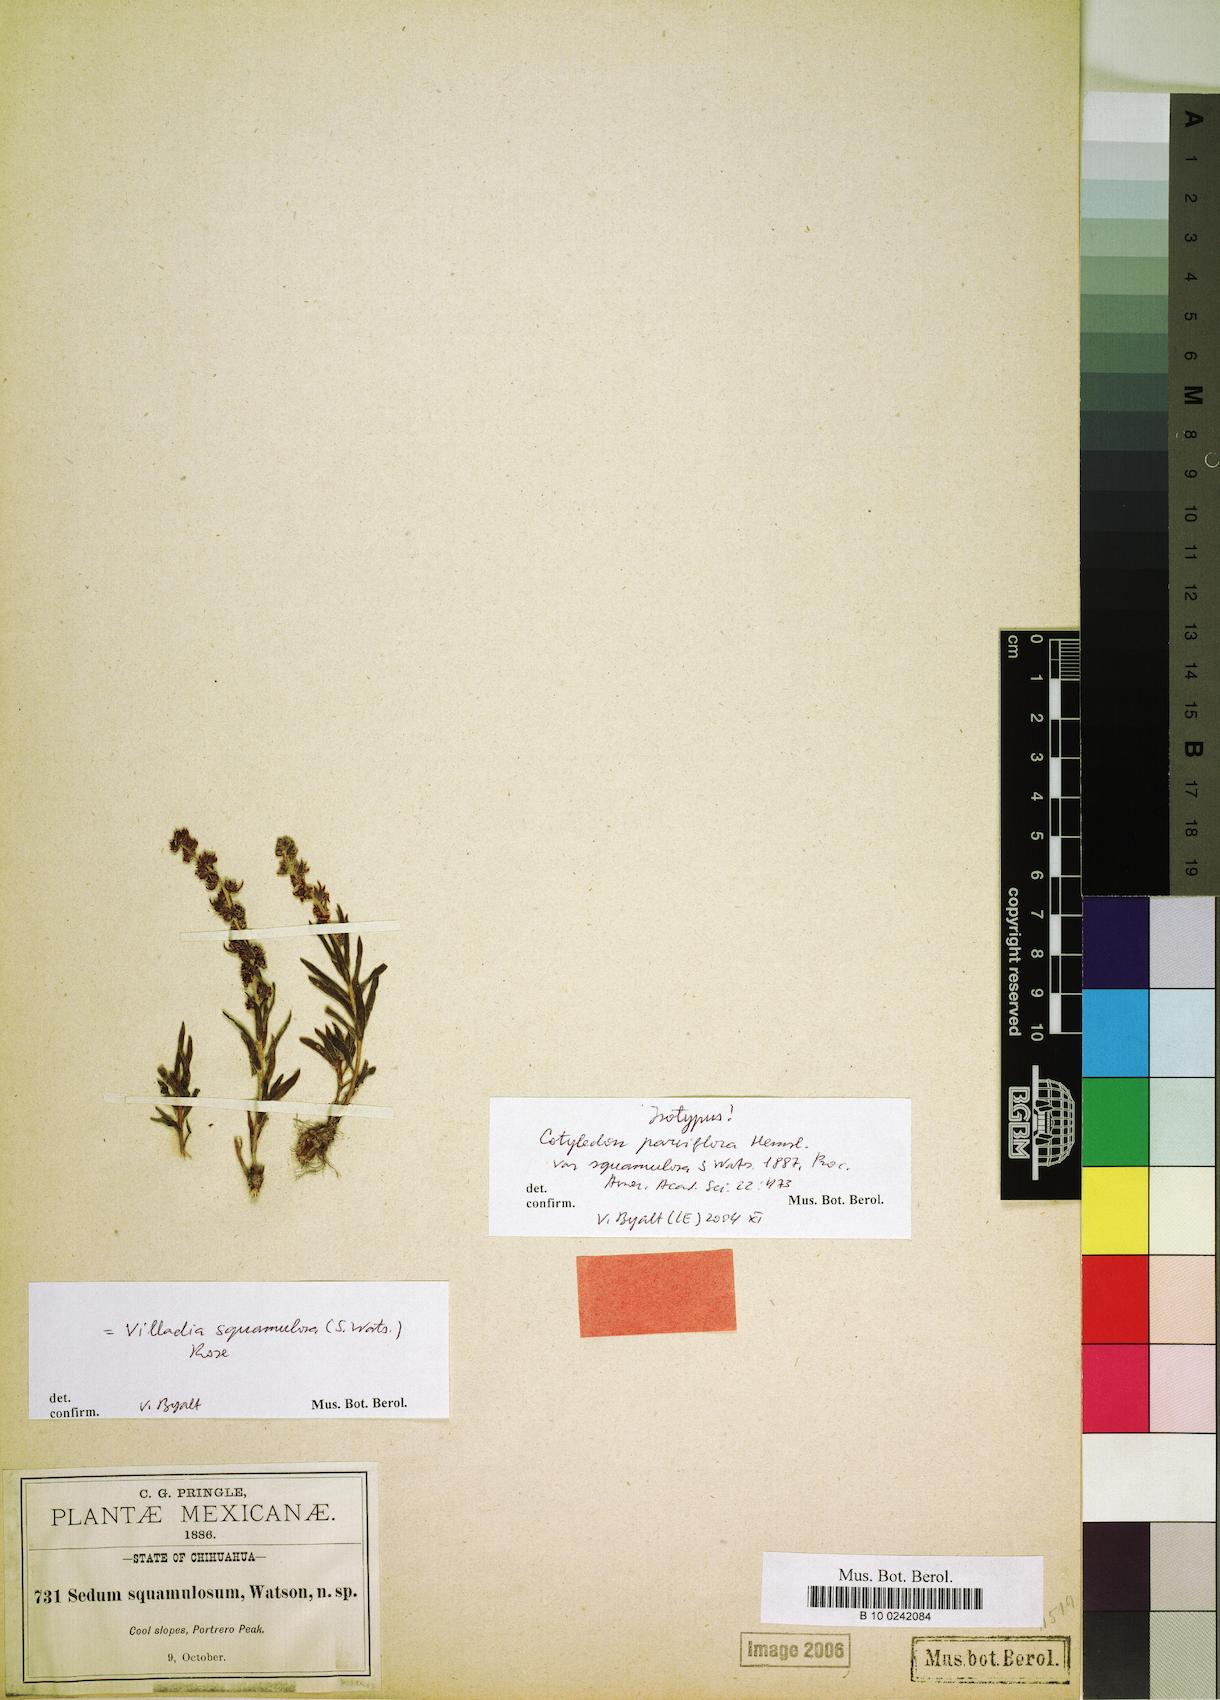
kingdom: Plantae
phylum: Tracheophyta
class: Magnoliopsida
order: Saxifragales
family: Crassulaceae
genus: Villadia
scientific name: Villadia squamulosa
